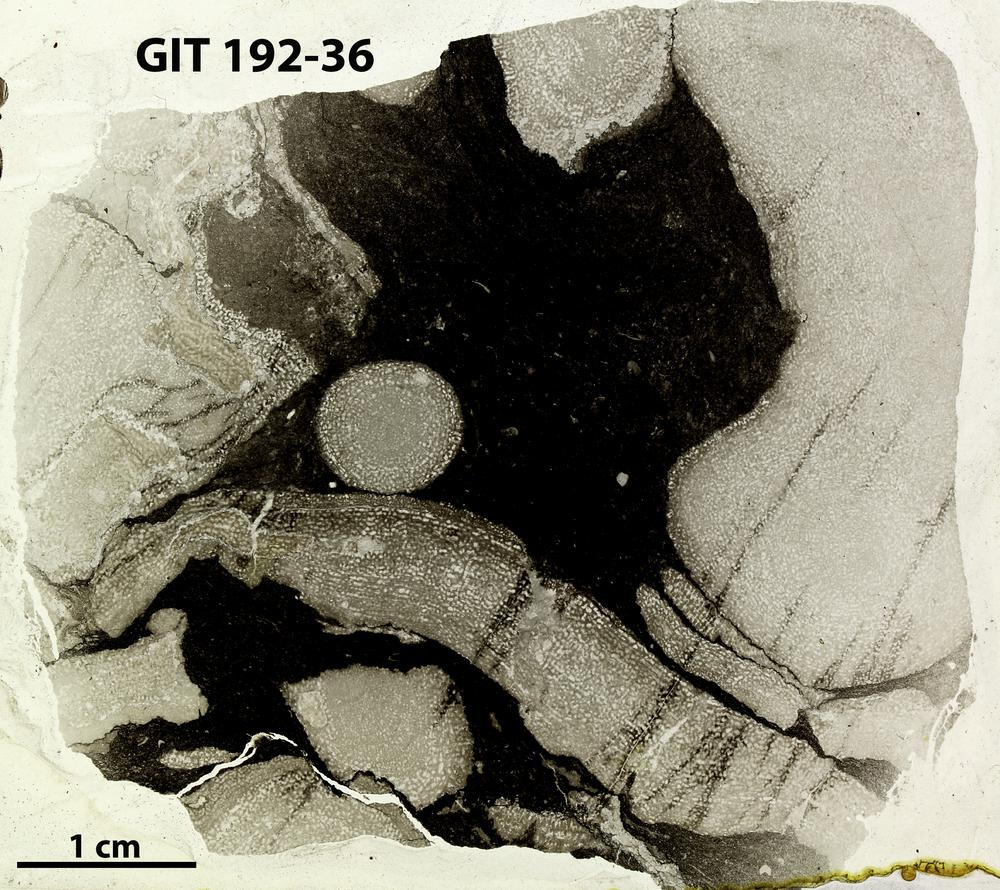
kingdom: Animalia
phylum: Porifera
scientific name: Porifera
